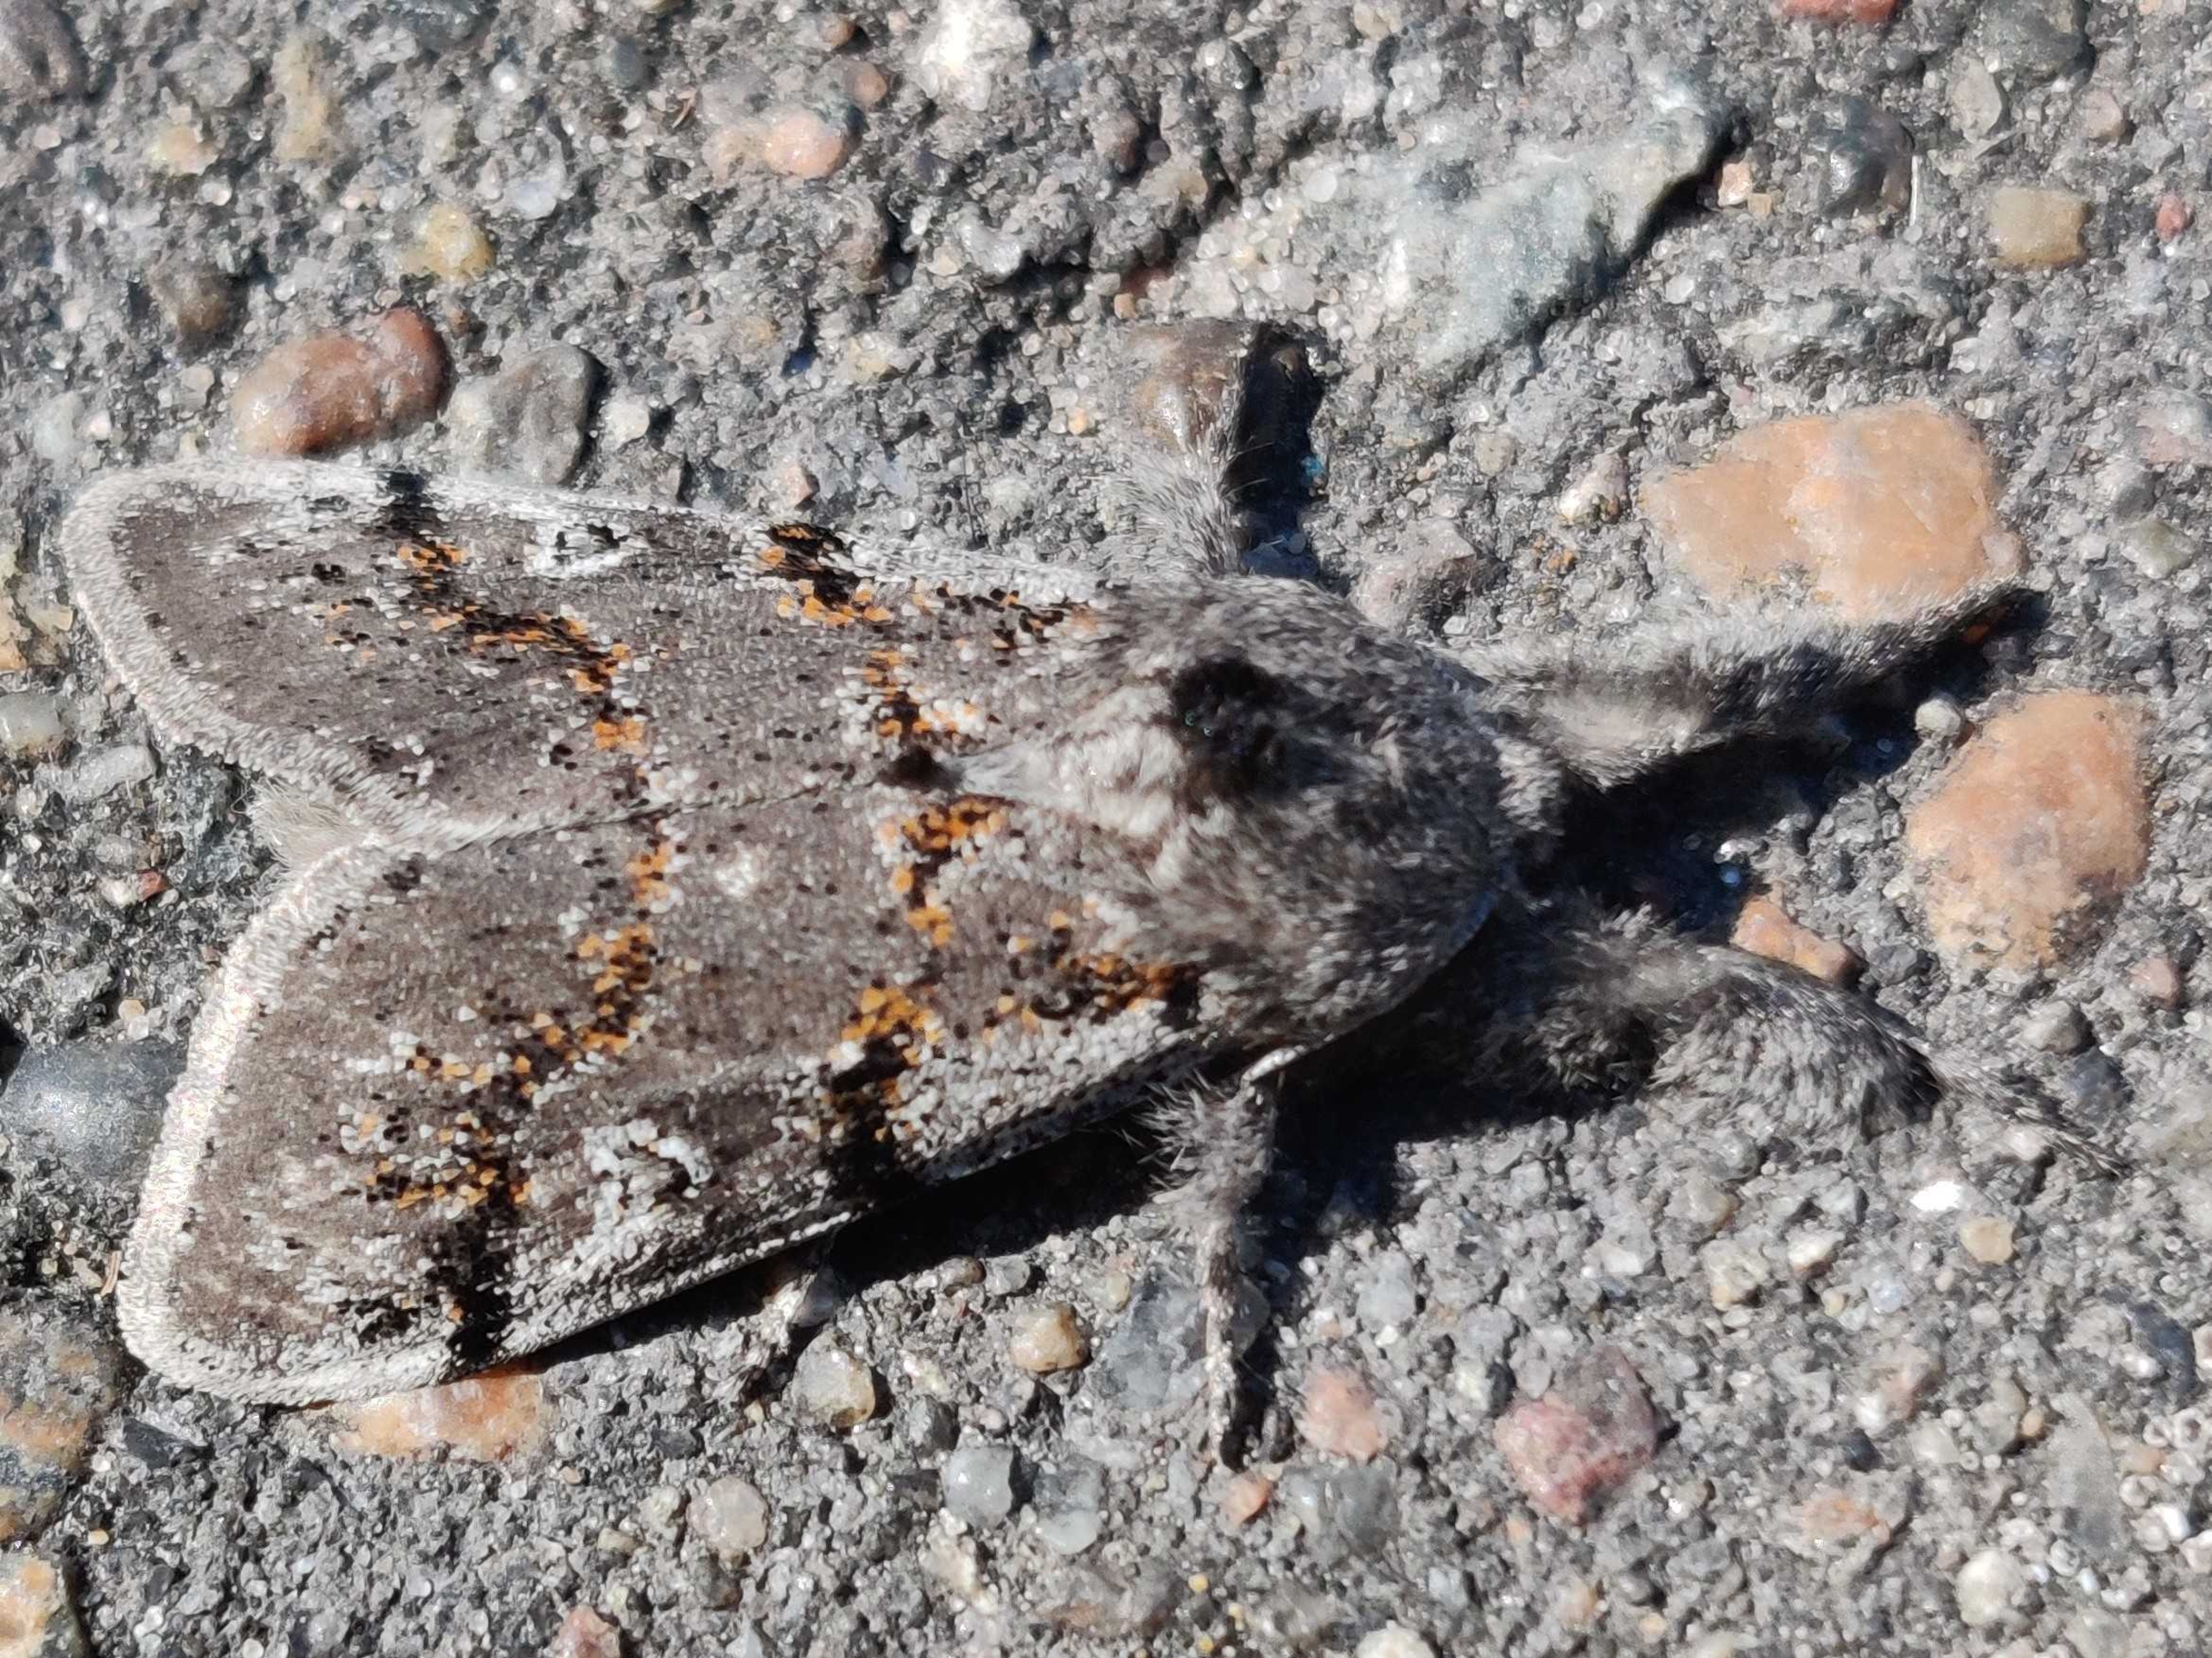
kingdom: Animalia
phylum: Arthropoda
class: Insecta
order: Lepidoptera
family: Erebidae
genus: Calliteara
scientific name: Calliteara Dicallomera fascelina
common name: Hedenonne
